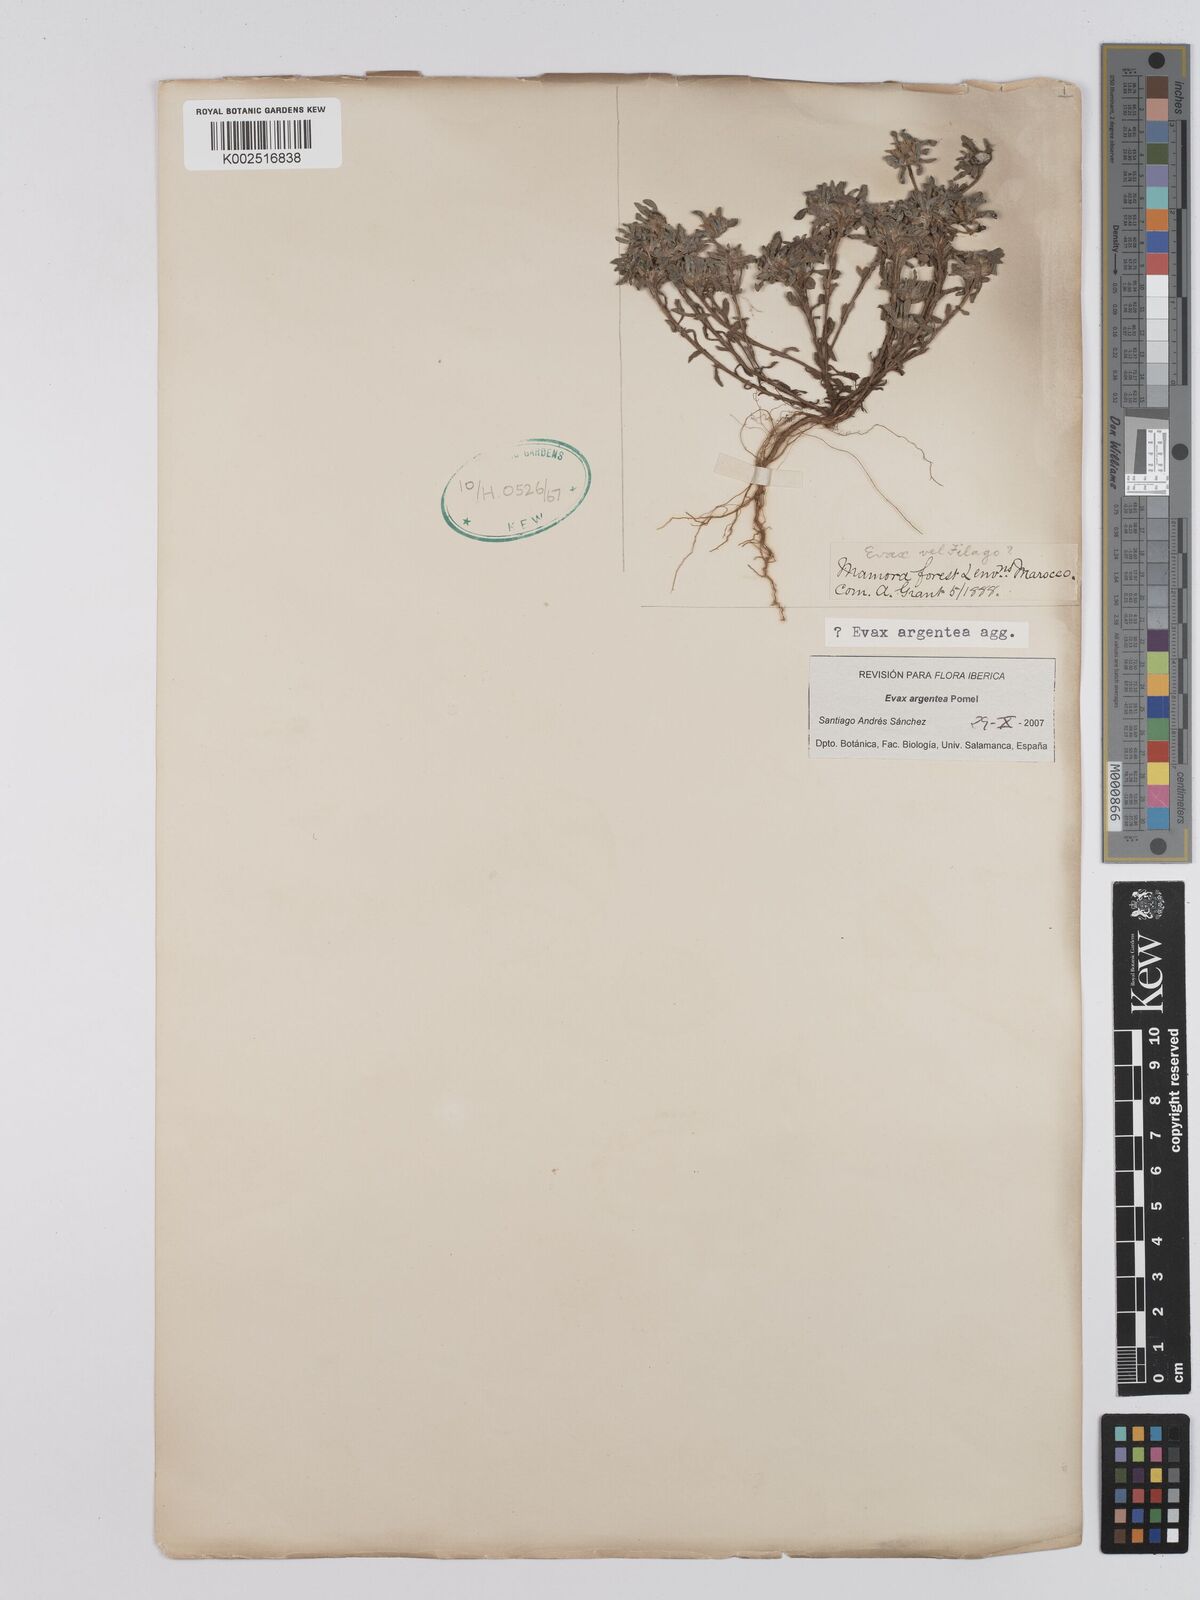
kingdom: Plantae
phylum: Tracheophyta
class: Magnoliopsida
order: Asterales
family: Asteraceae
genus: Filago
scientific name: Filago argentea
